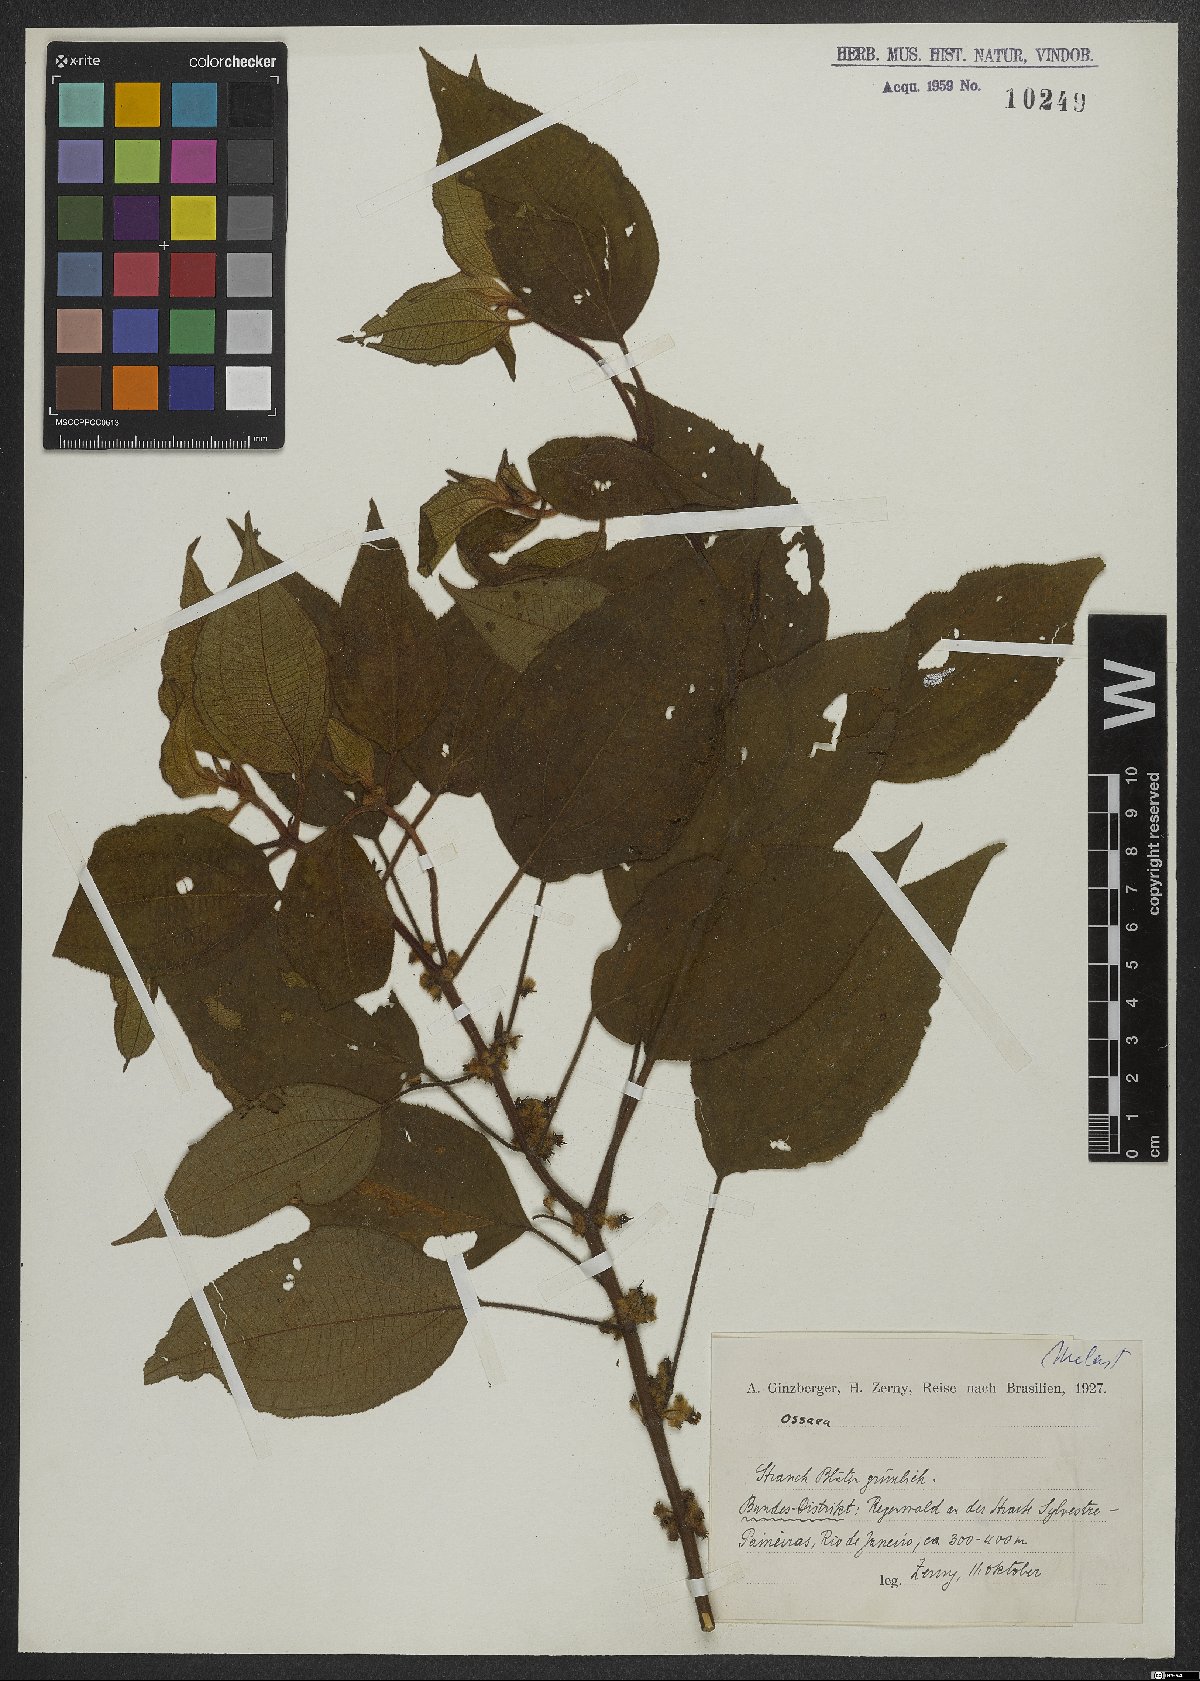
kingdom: Plantae
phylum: Tracheophyta
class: Magnoliopsida
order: Myrtales
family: Melastomataceae
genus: Ossaea
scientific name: Ossaea
